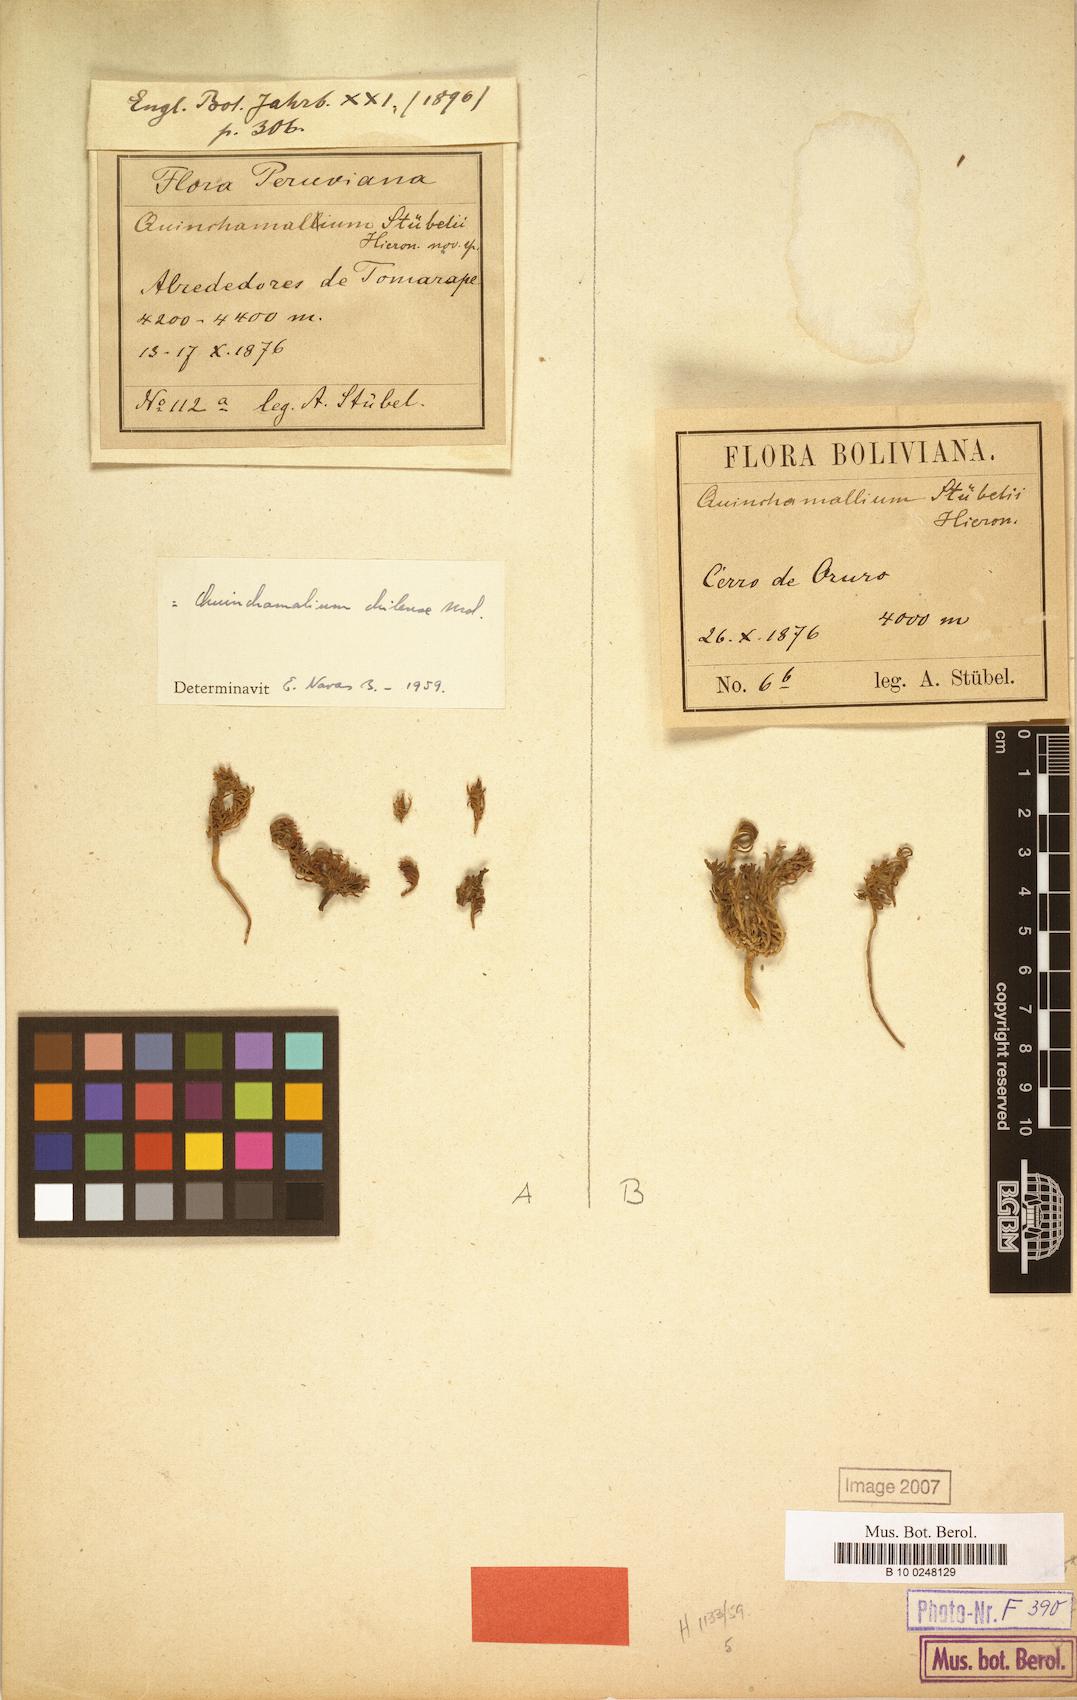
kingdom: Plantae
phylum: Tracheophyta
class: Magnoliopsida
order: Santalales
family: Schoepfiaceae
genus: Quinchamalium
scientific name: Quinchamalium chilense
